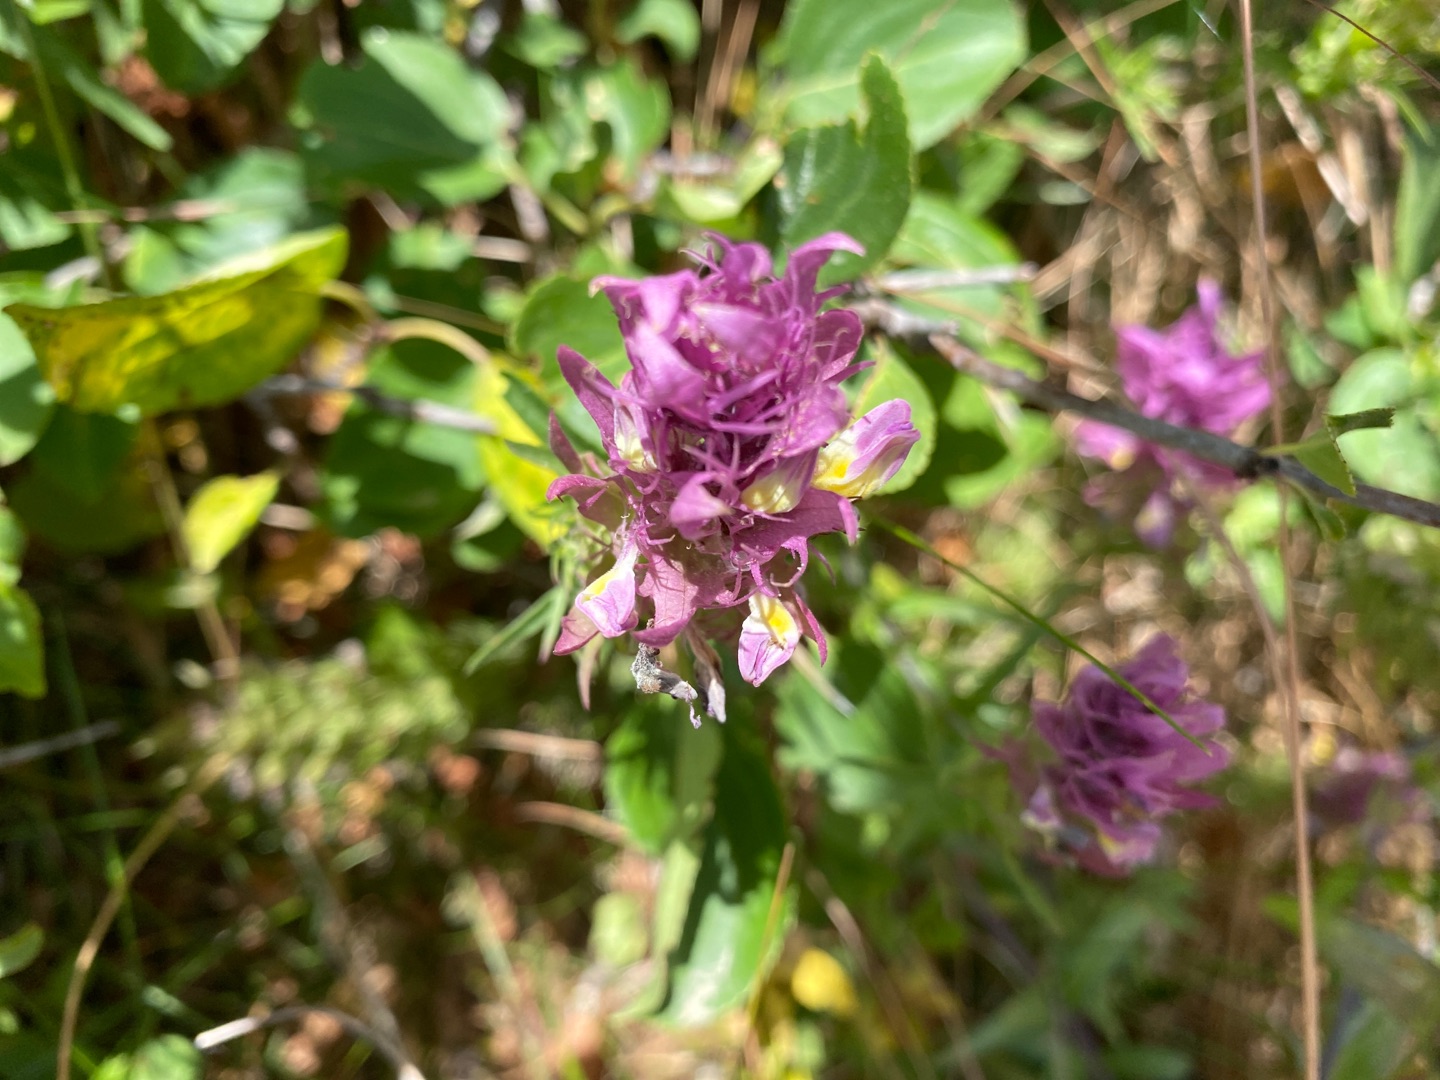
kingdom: Plantae
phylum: Tracheophyta
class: Magnoliopsida
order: Lamiales
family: Orobanchaceae
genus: Melampyrum
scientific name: Melampyrum arvense
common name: Ager-kohvede
